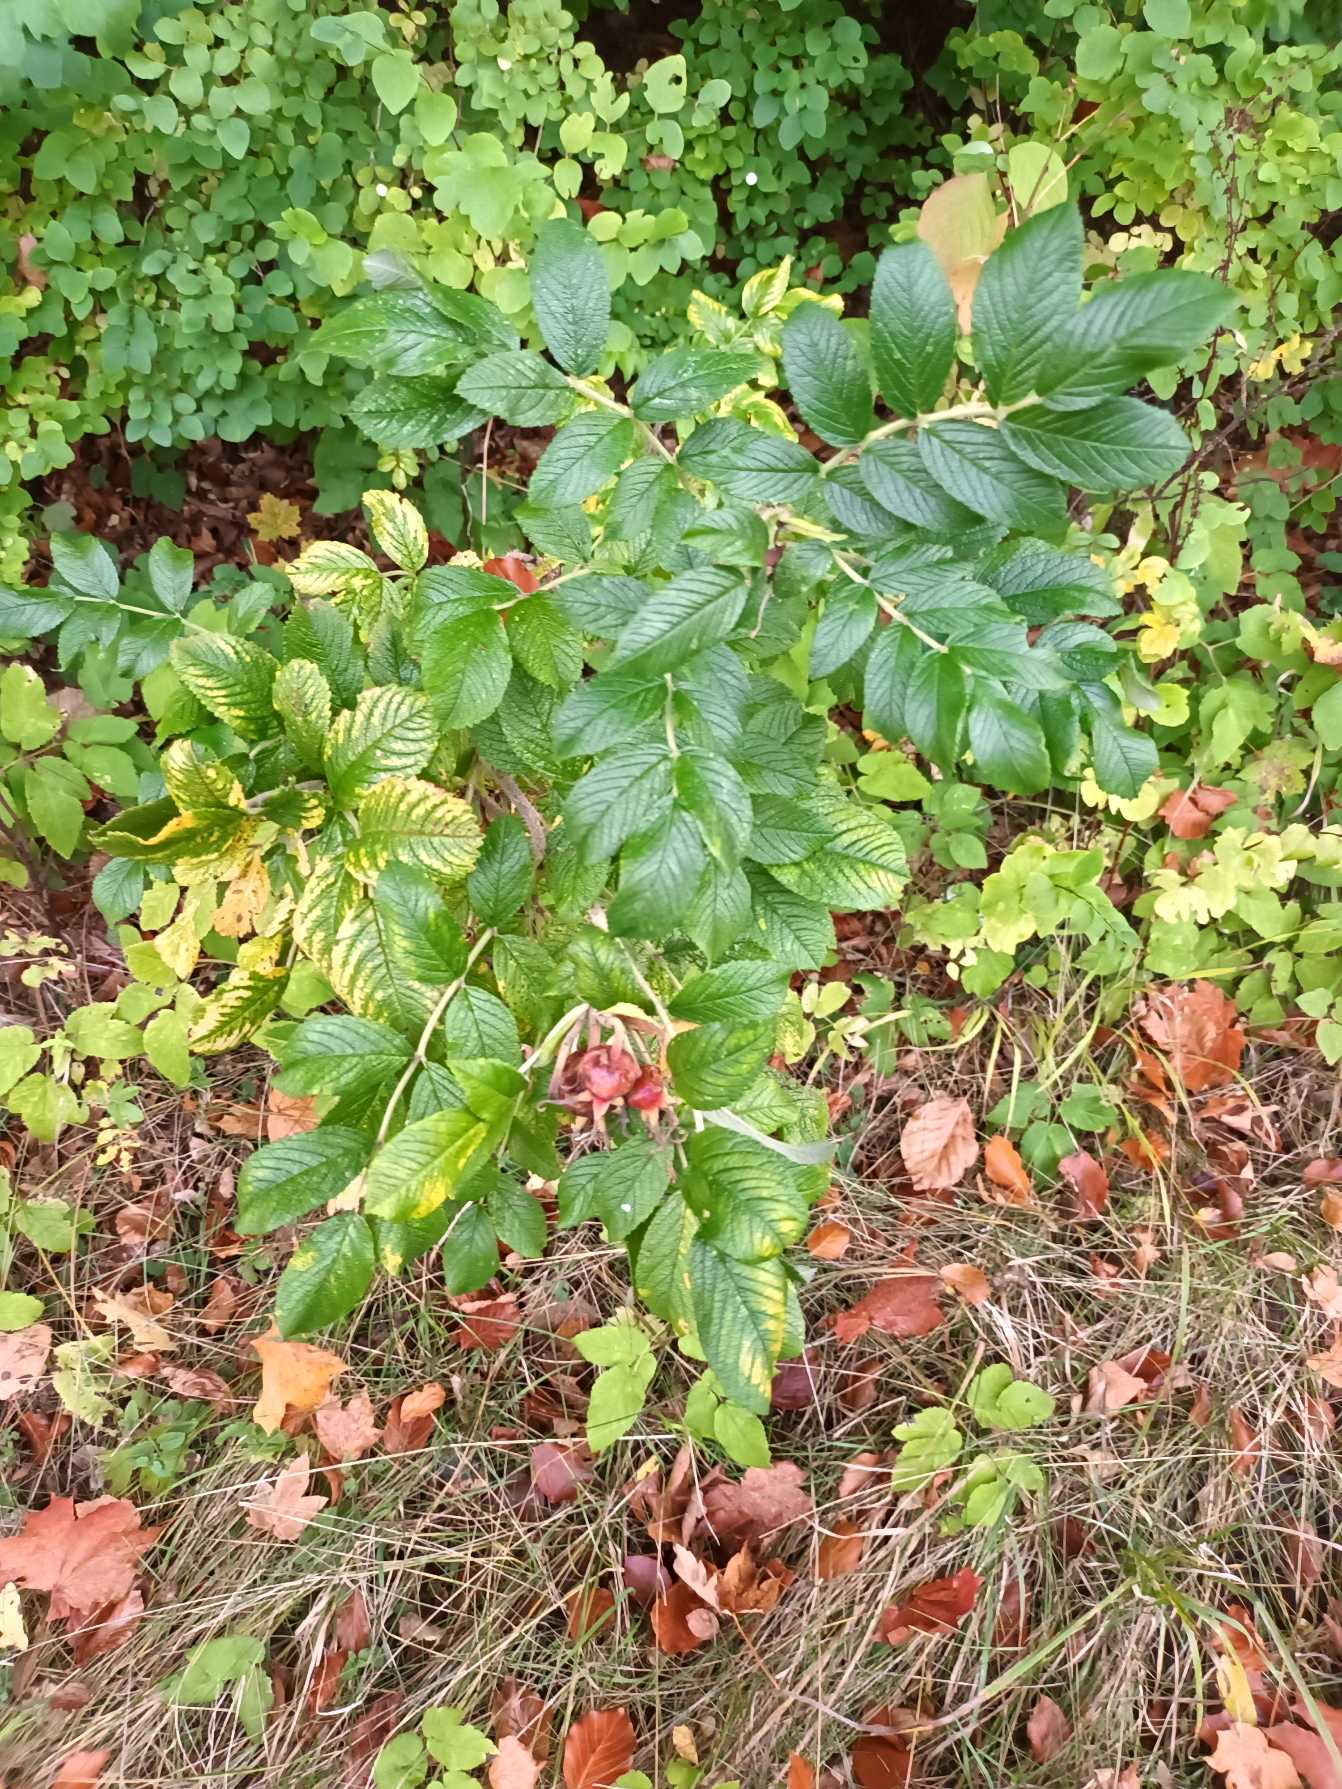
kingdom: Plantae
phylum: Tracheophyta
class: Magnoliopsida
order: Rosales
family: Rosaceae
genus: Rosa
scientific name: Rosa rugosa
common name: Rynket rose
